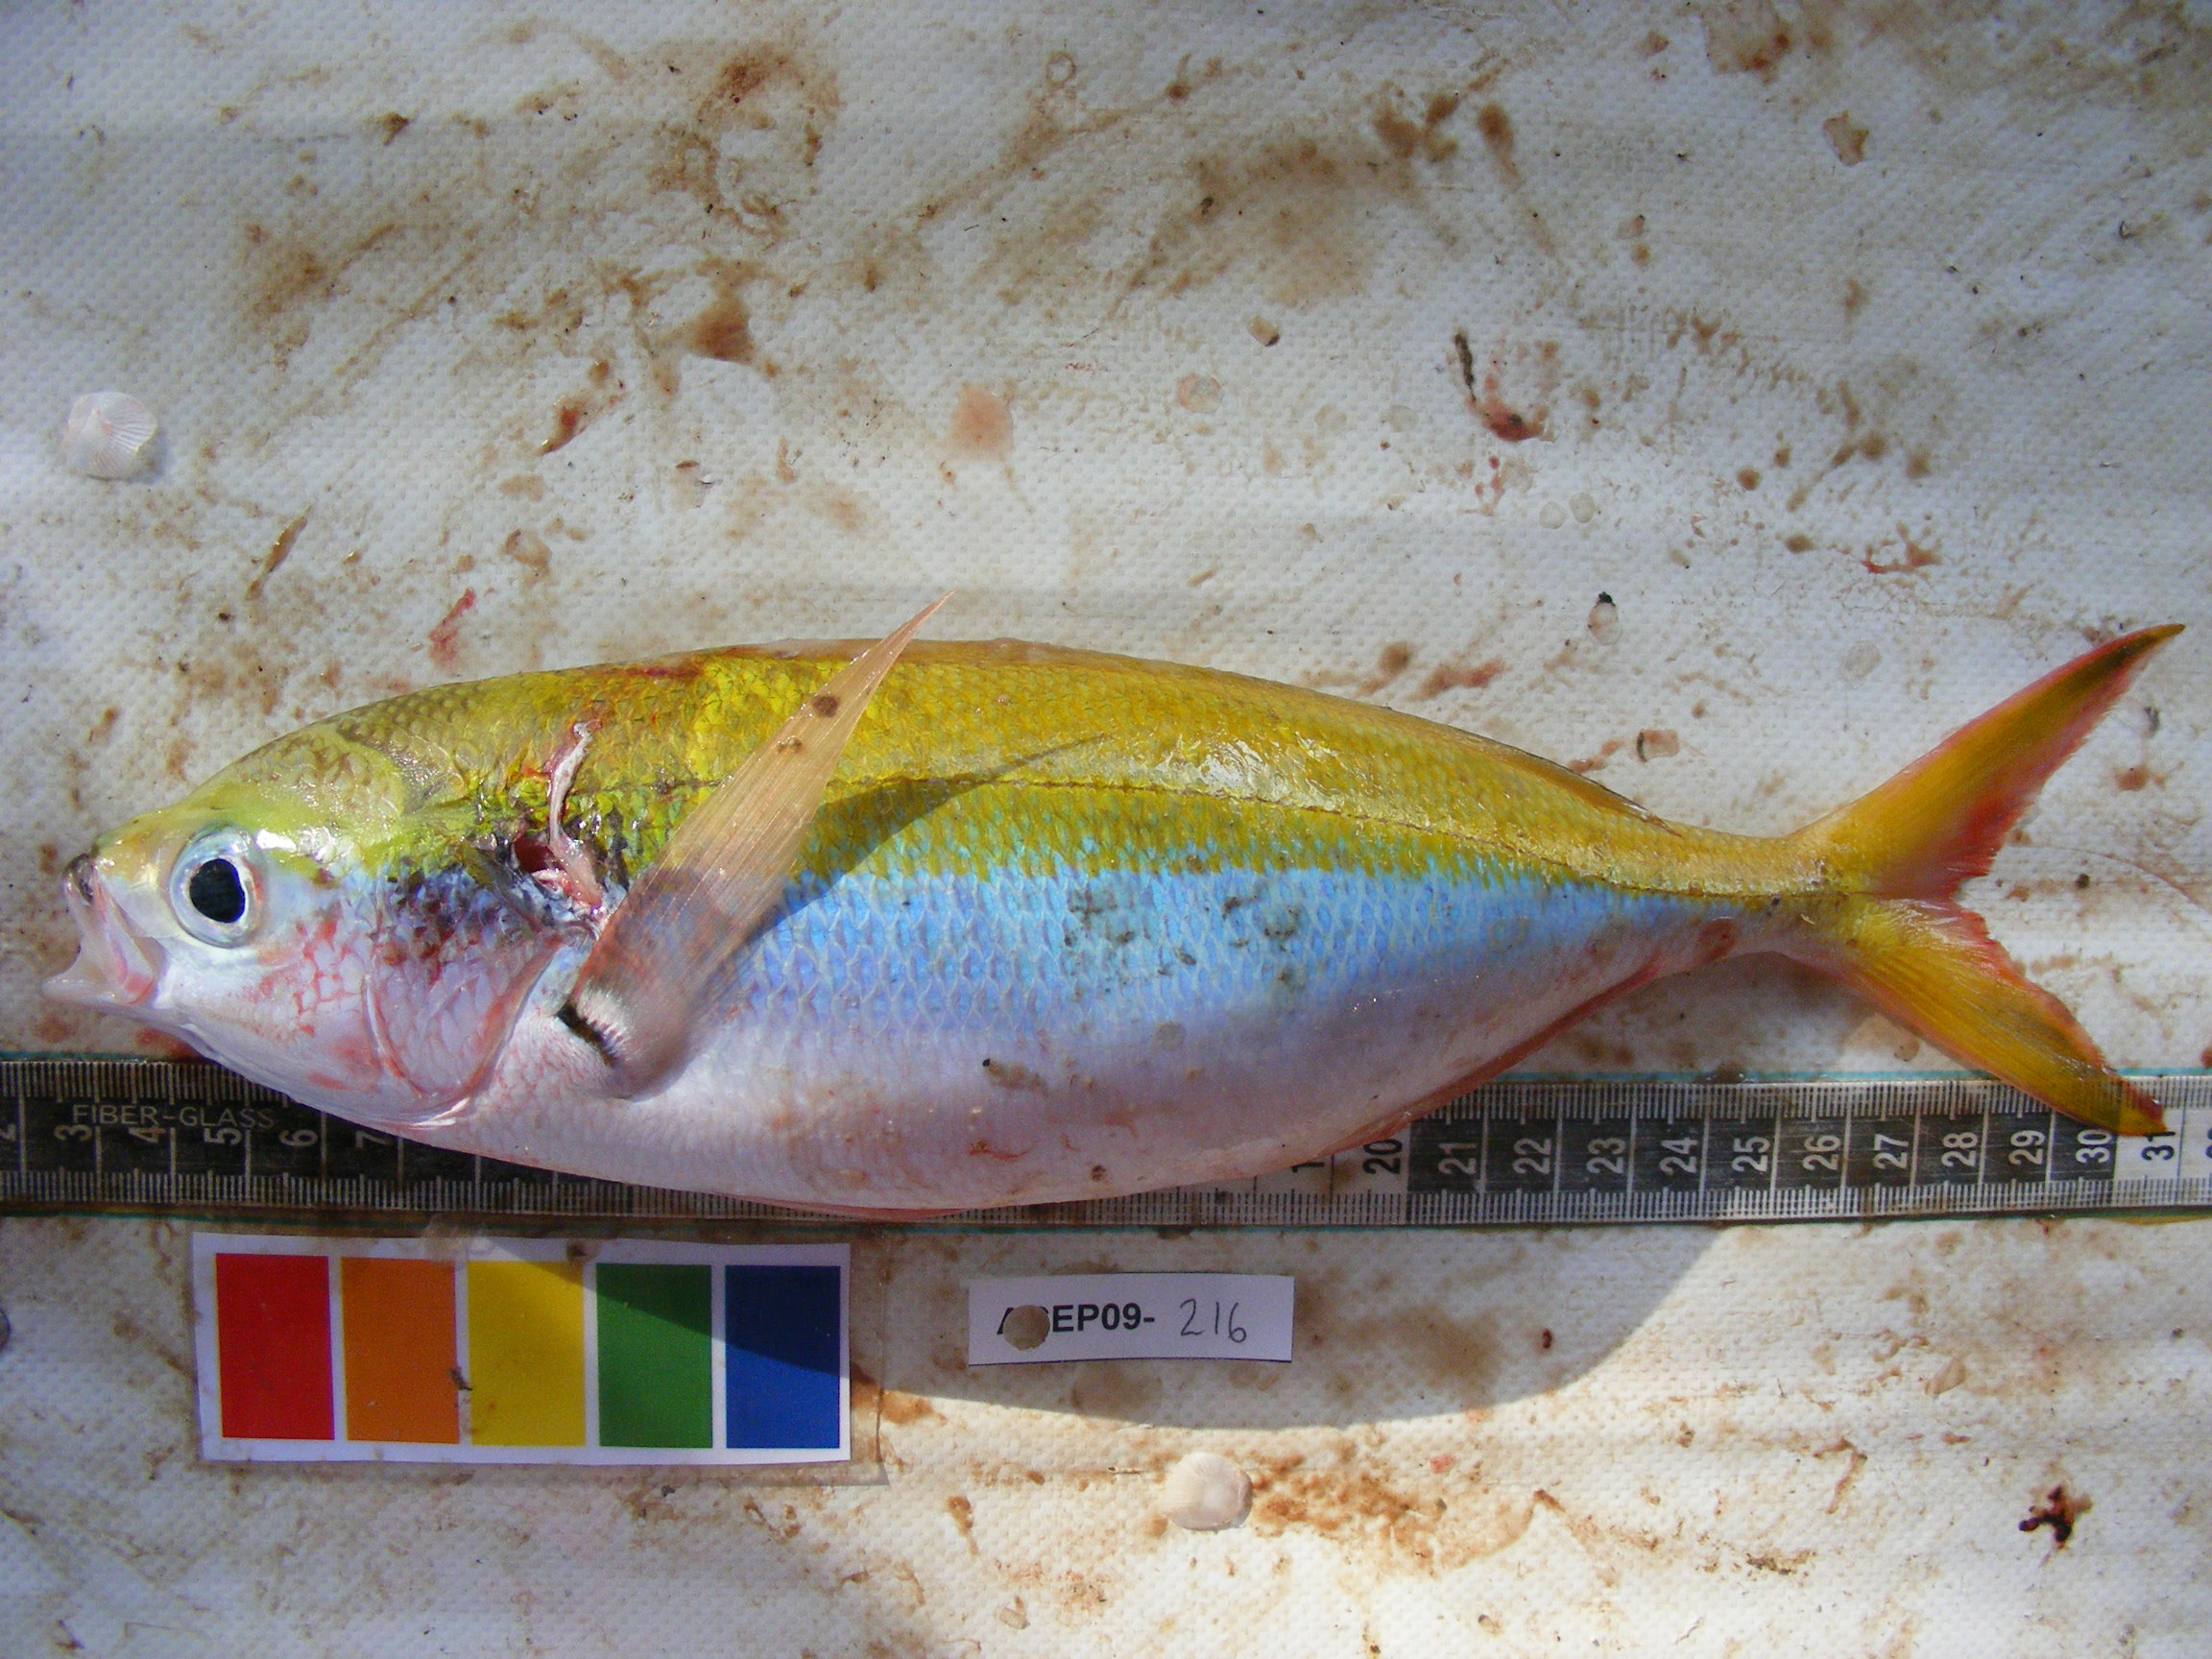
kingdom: Animalia
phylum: Chordata
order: Perciformes
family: Caesionidae
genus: Caesio
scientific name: Caesio teres
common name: Yellow and blueback fusilier
